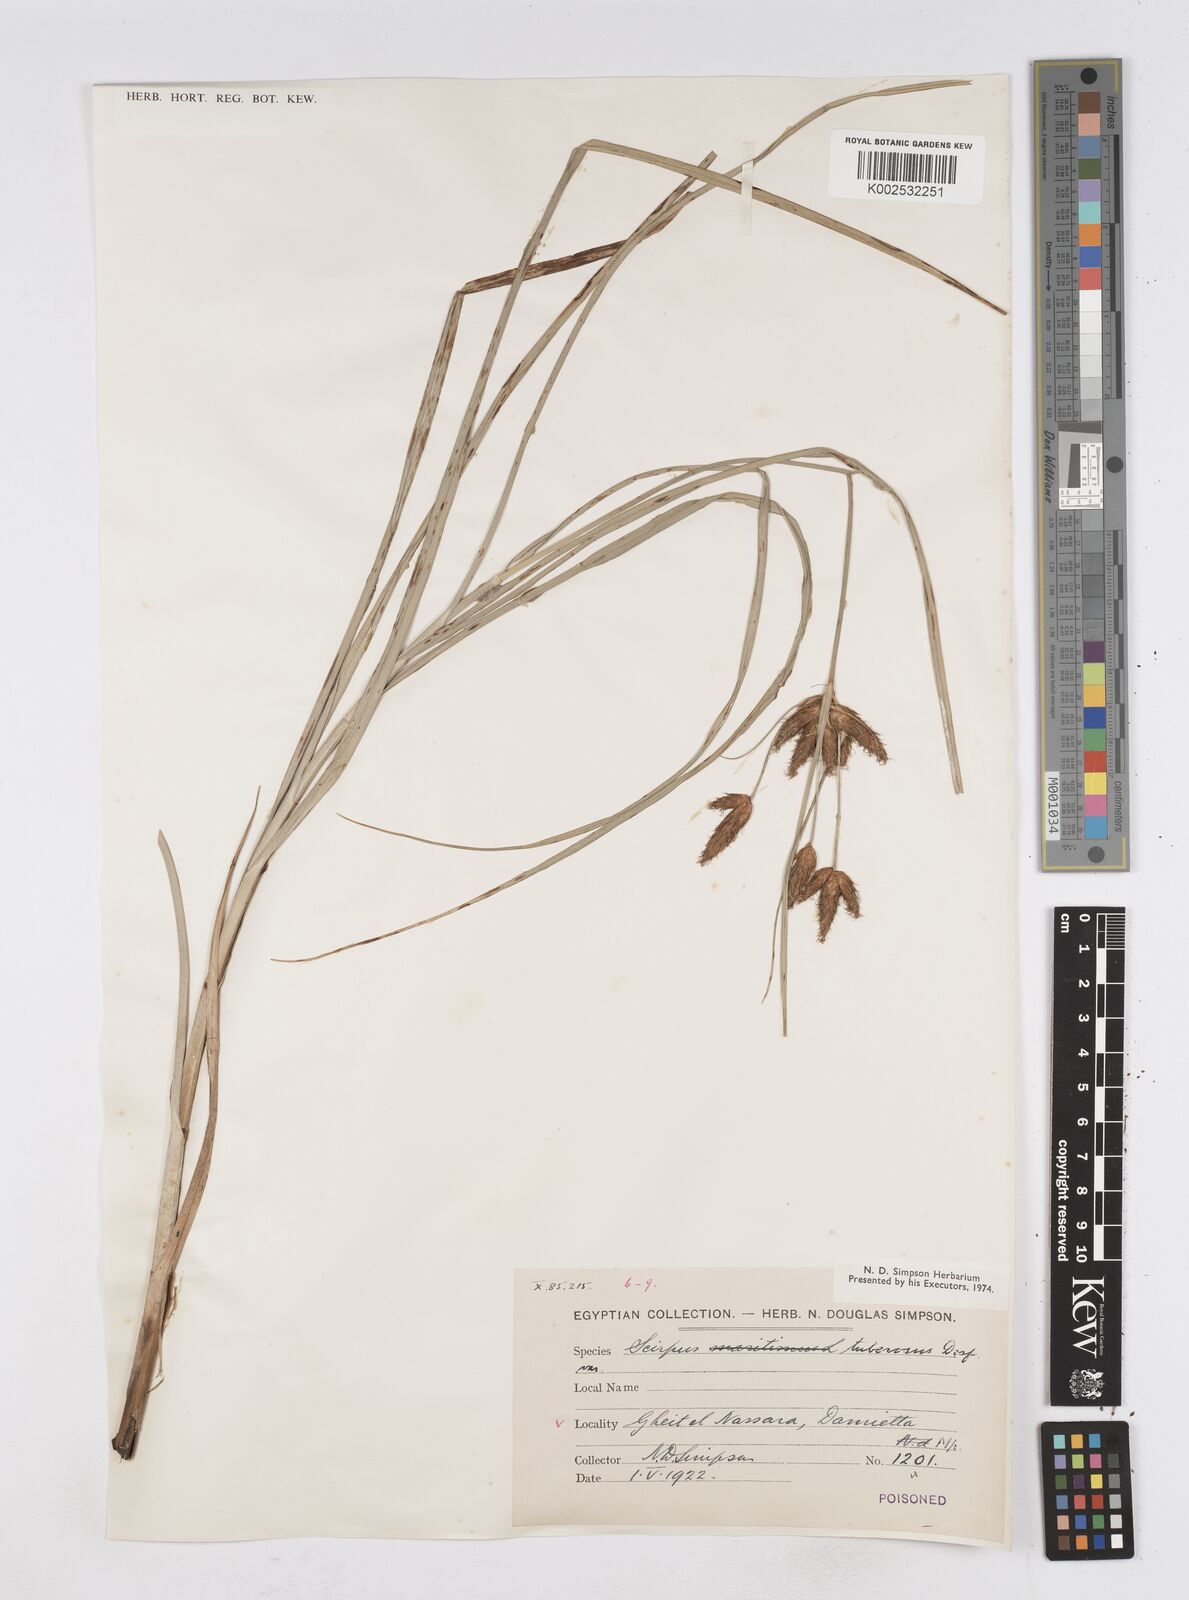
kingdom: Plantae
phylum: Tracheophyta
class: Liliopsida
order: Poales
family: Cyperaceae
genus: Bolboschoenus
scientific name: Bolboschoenus maritimus
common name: Sea club-rush
